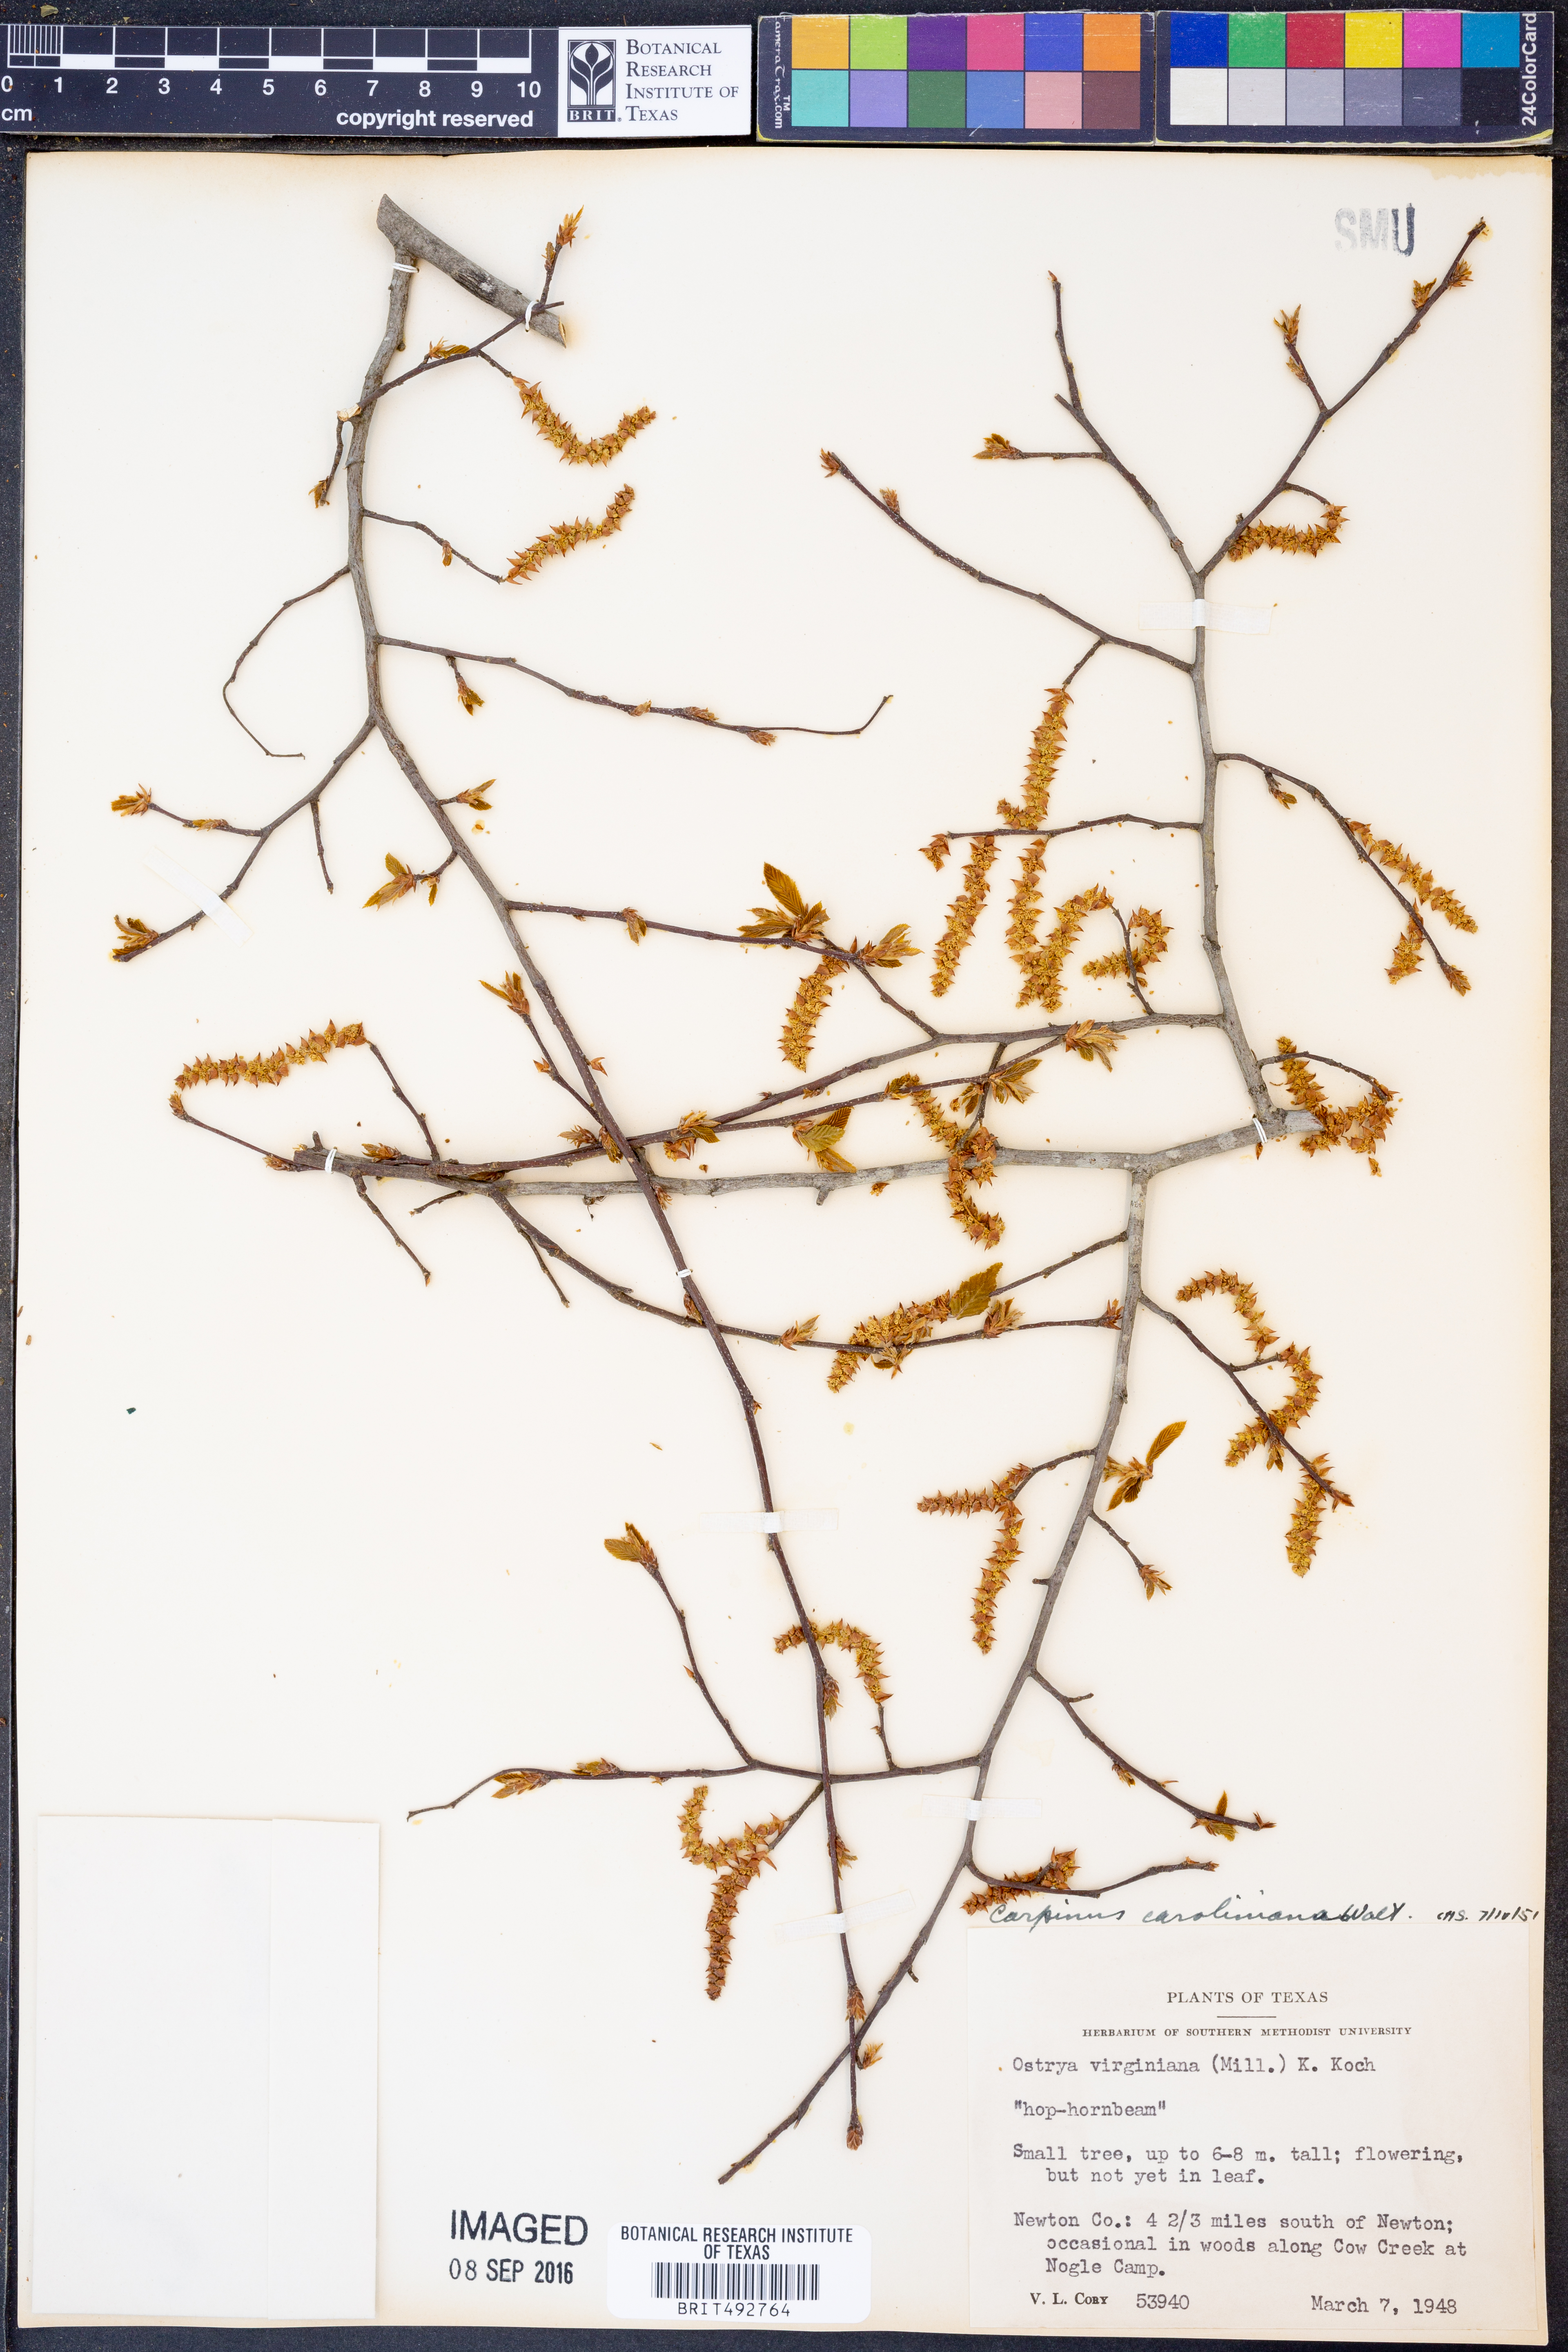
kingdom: Plantae
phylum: Tracheophyta
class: Magnoliopsida
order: Fagales
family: Betulaceae
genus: Carpinus
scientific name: Carpinus caroliniana
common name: American hornbeam
